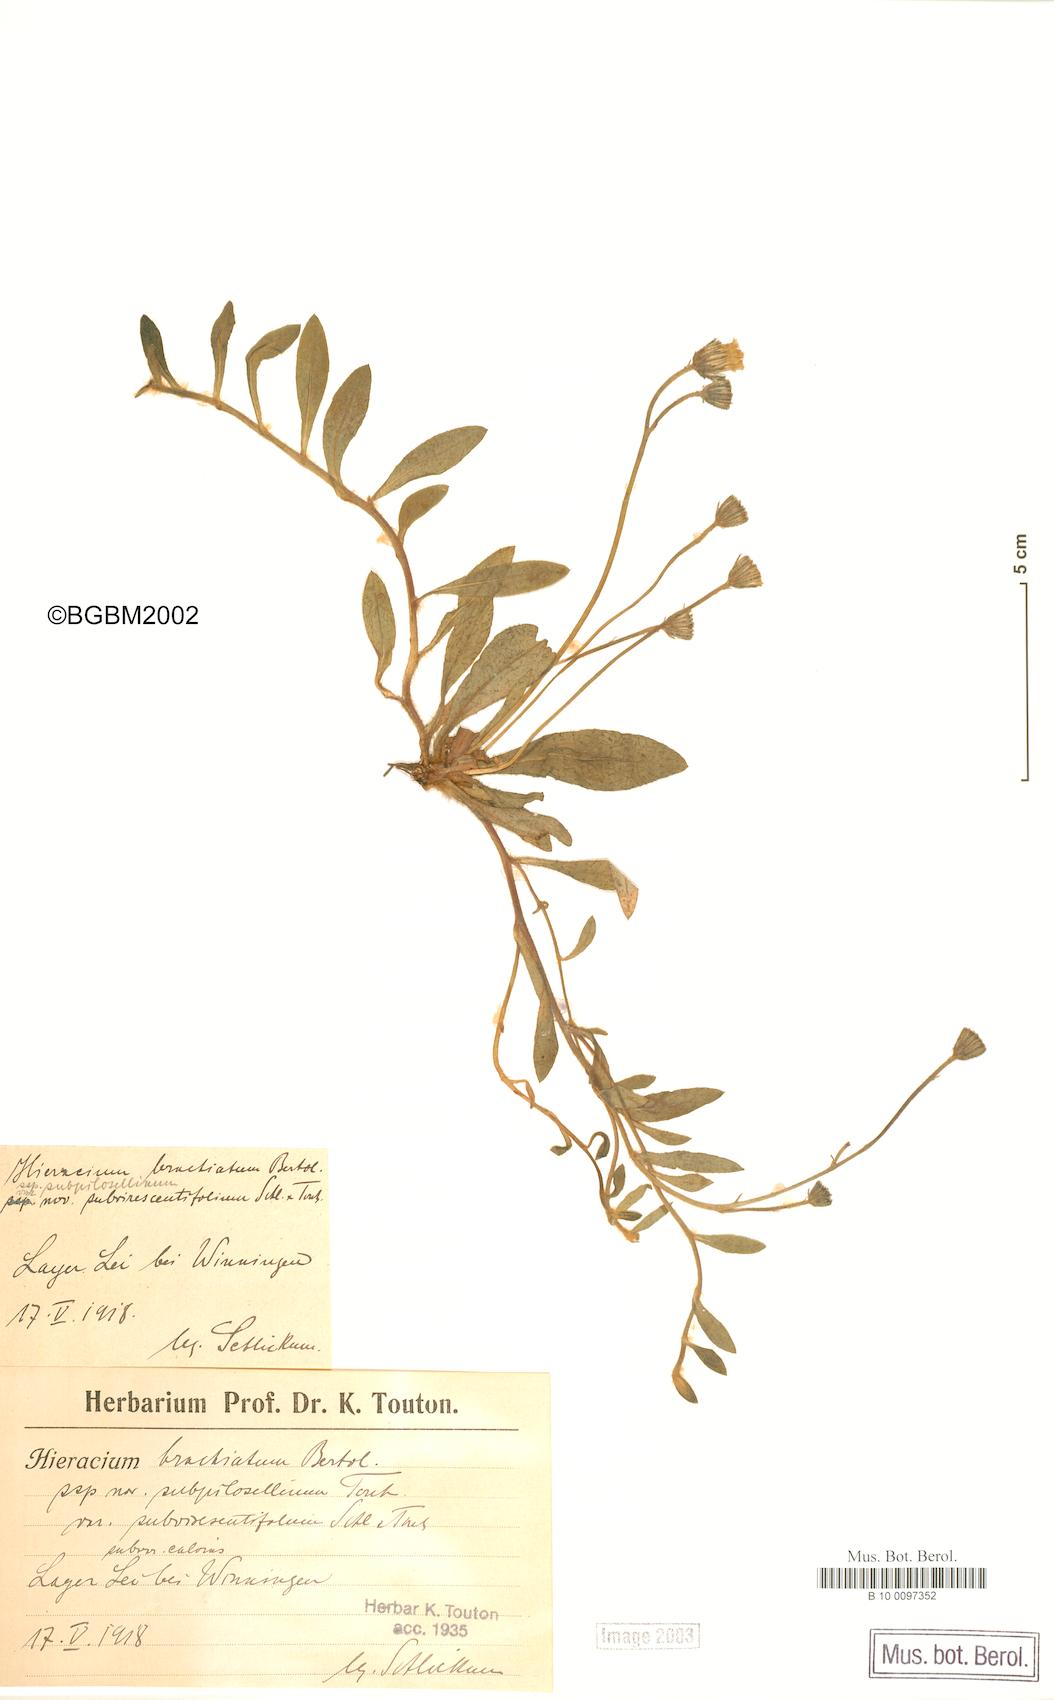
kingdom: Plantae
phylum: Tracheophyta
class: Magnoliopsida
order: Asterales
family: Asteraceae
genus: Pilosella
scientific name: Pilosella acutifolia
